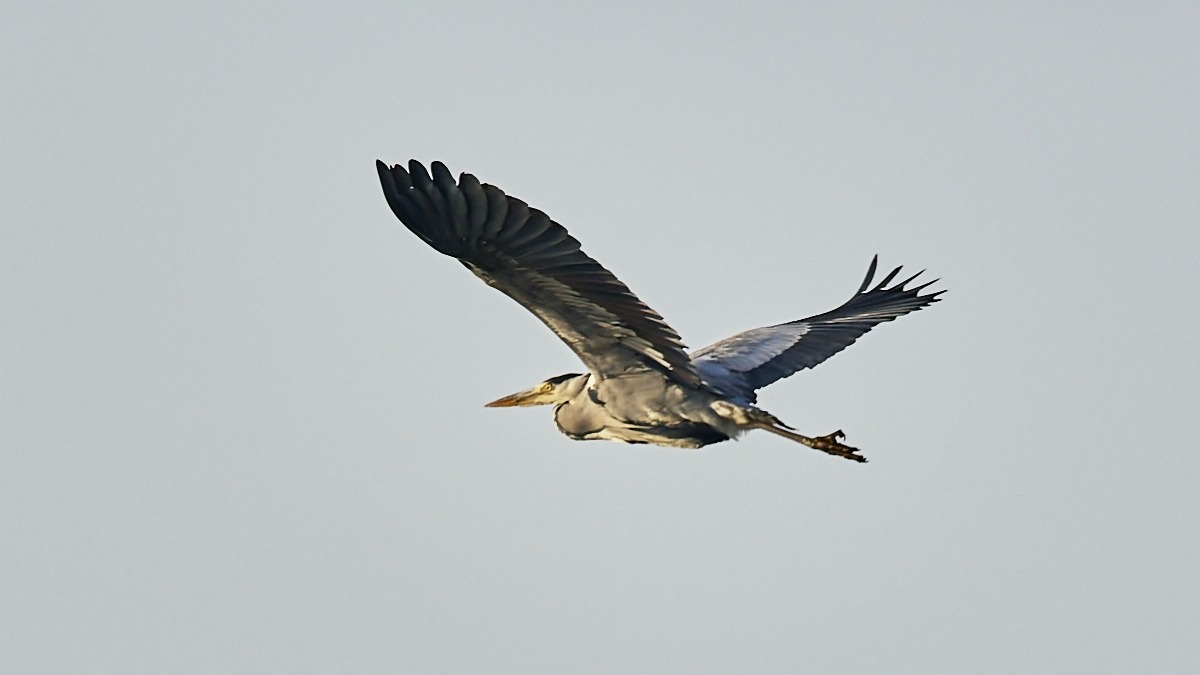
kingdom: Animalia
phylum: Chordata
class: Aves
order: Pelecaniformes
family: Ardeidae
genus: Ardea
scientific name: Ardea cinerea
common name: Fiskehejre
